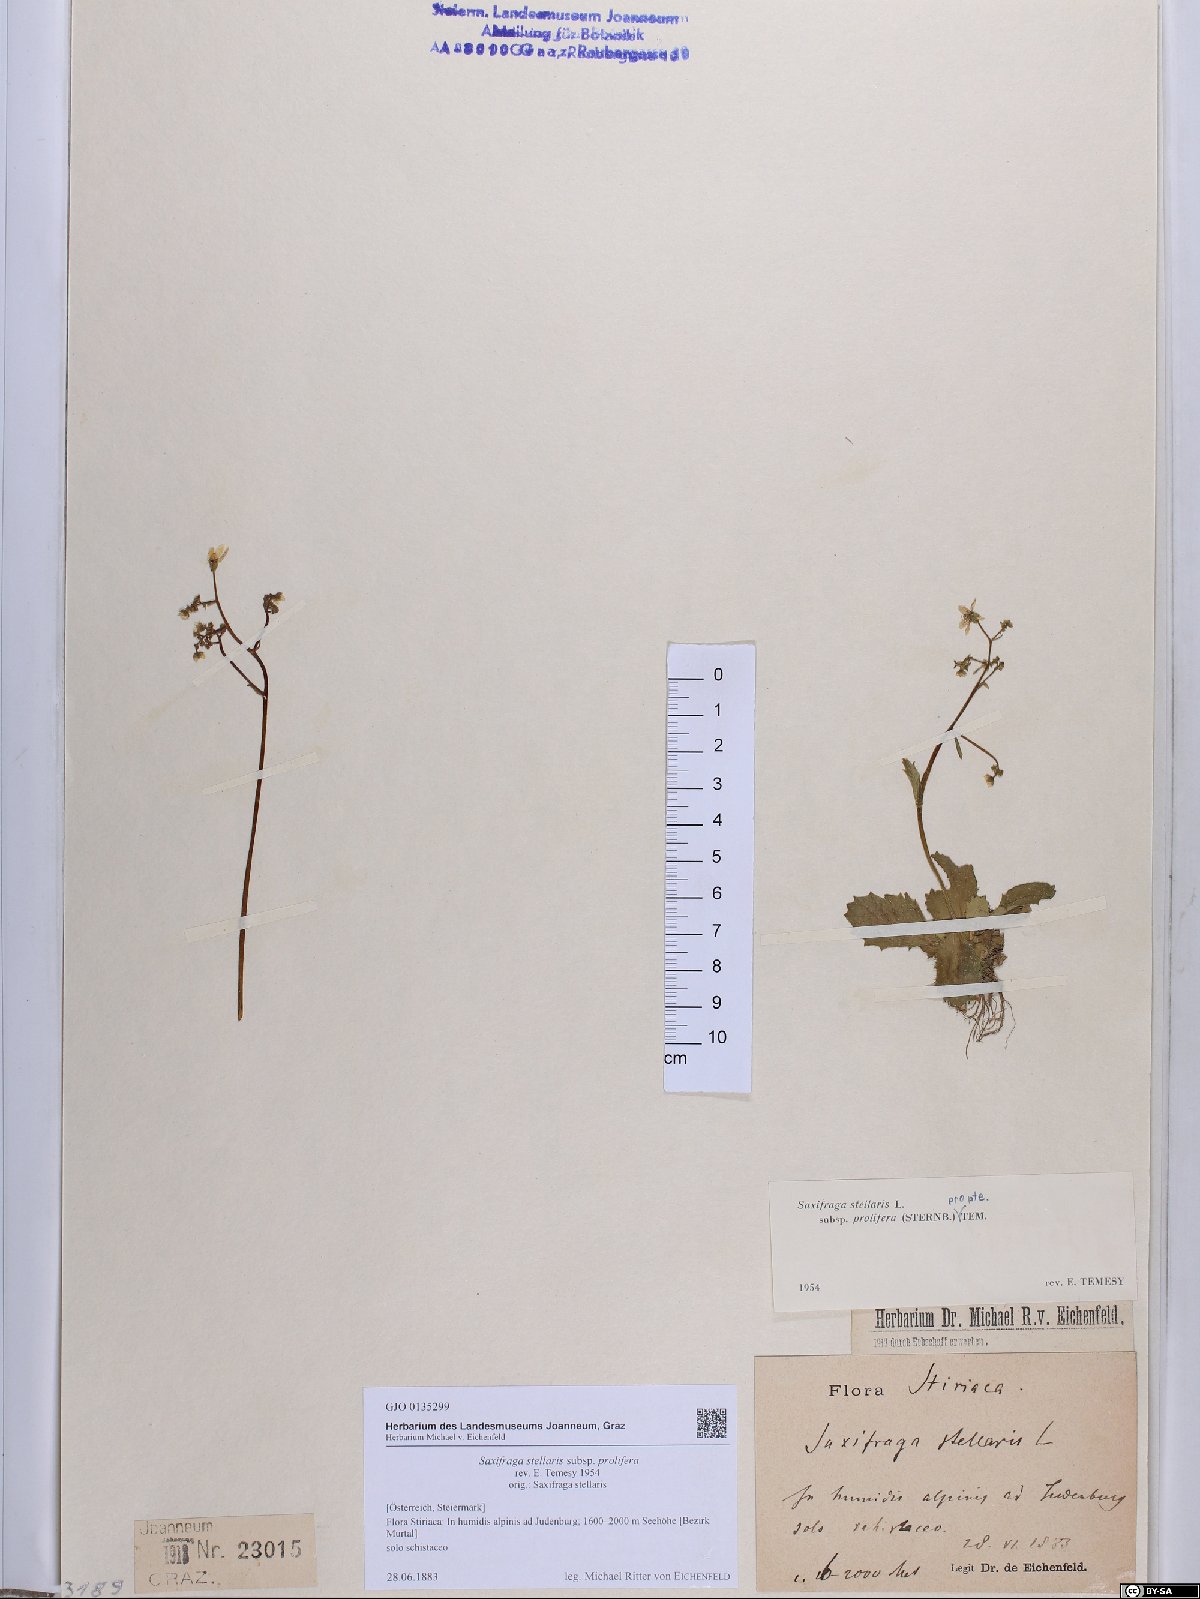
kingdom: Plantae
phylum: Tracheophyta
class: Magnoliopsida
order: Saxifragales
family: Saxifragaceae
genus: Micranthes
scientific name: Micranthes stellaris
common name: Starry saxifrage
